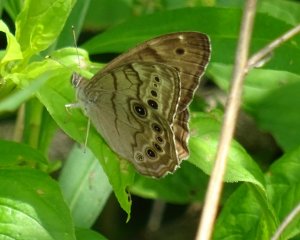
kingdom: Animalia
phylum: Arthropoda
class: Insecta
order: Lepidoptera
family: Nymphalidae
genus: Lethe
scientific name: Lethe anthedon
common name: Northern Pearly-Eye
